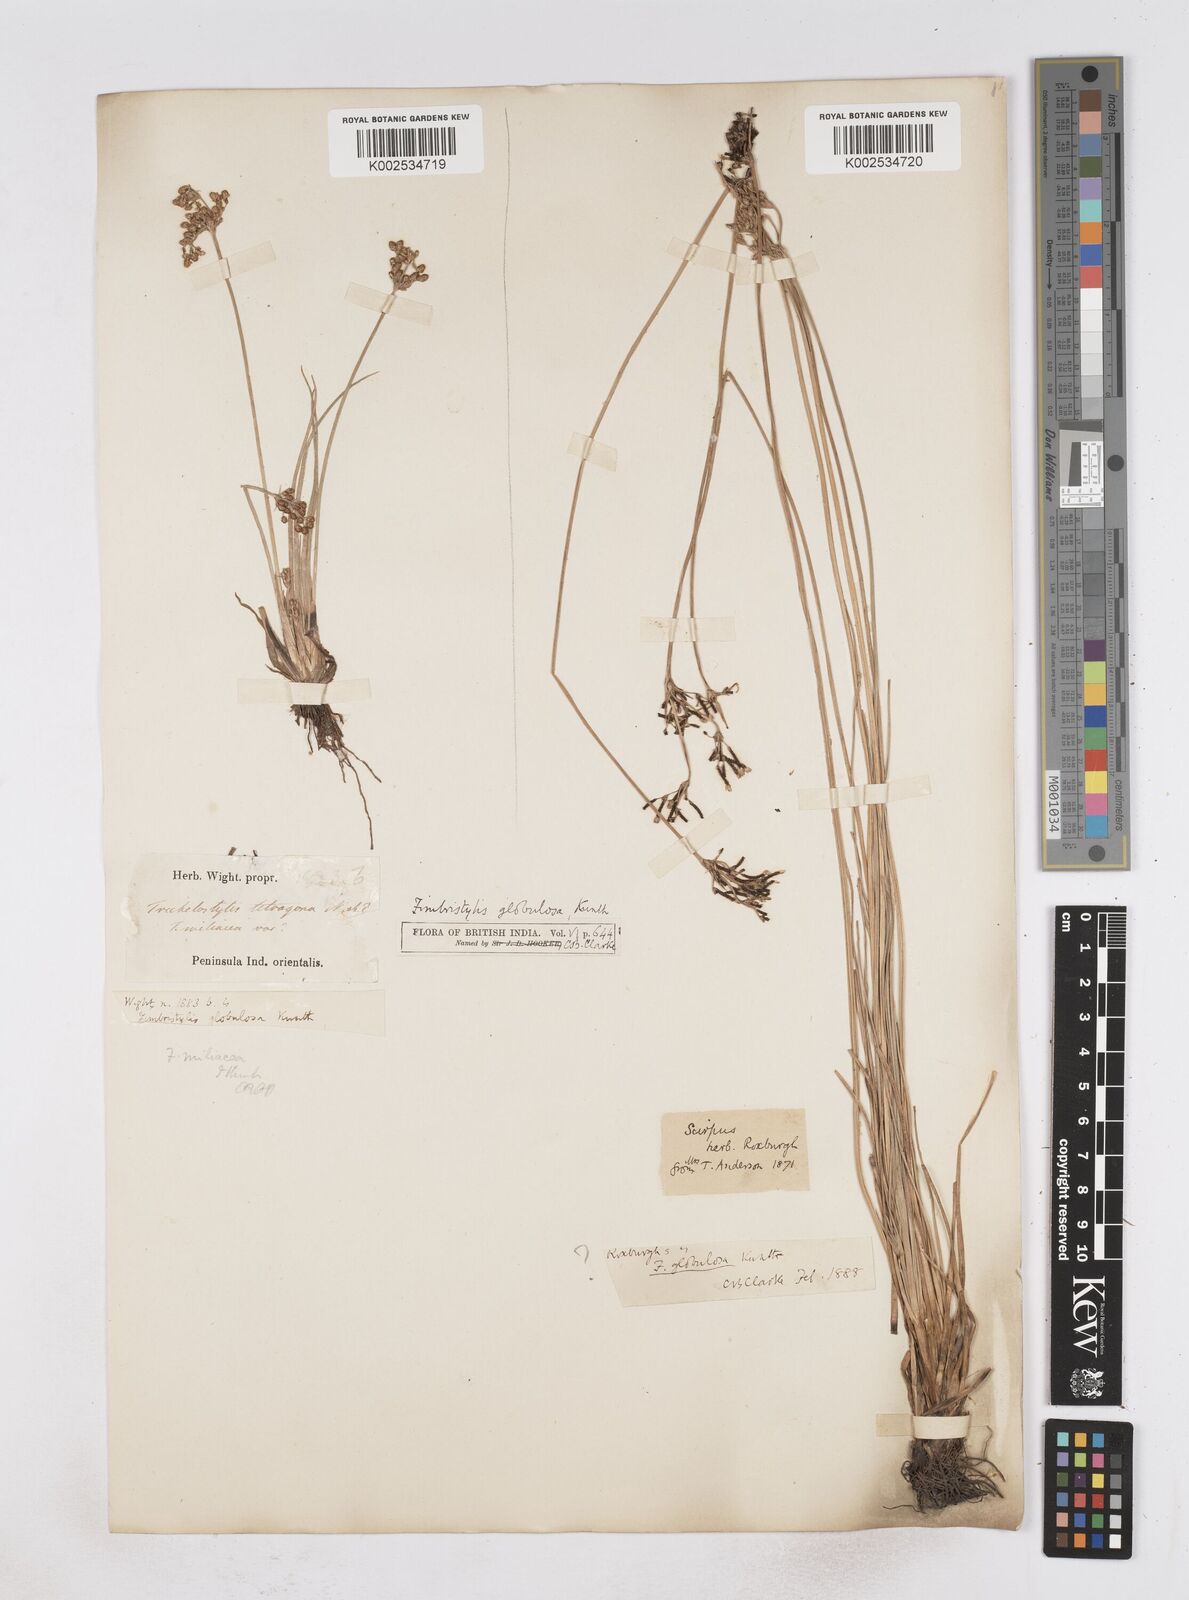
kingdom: Plantae
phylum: Tracheophyta
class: Liliopsida
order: Poales
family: Cyperaceae
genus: Fimbristylis
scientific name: Fimbristylis umbellaris
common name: Globular fimbristylis
